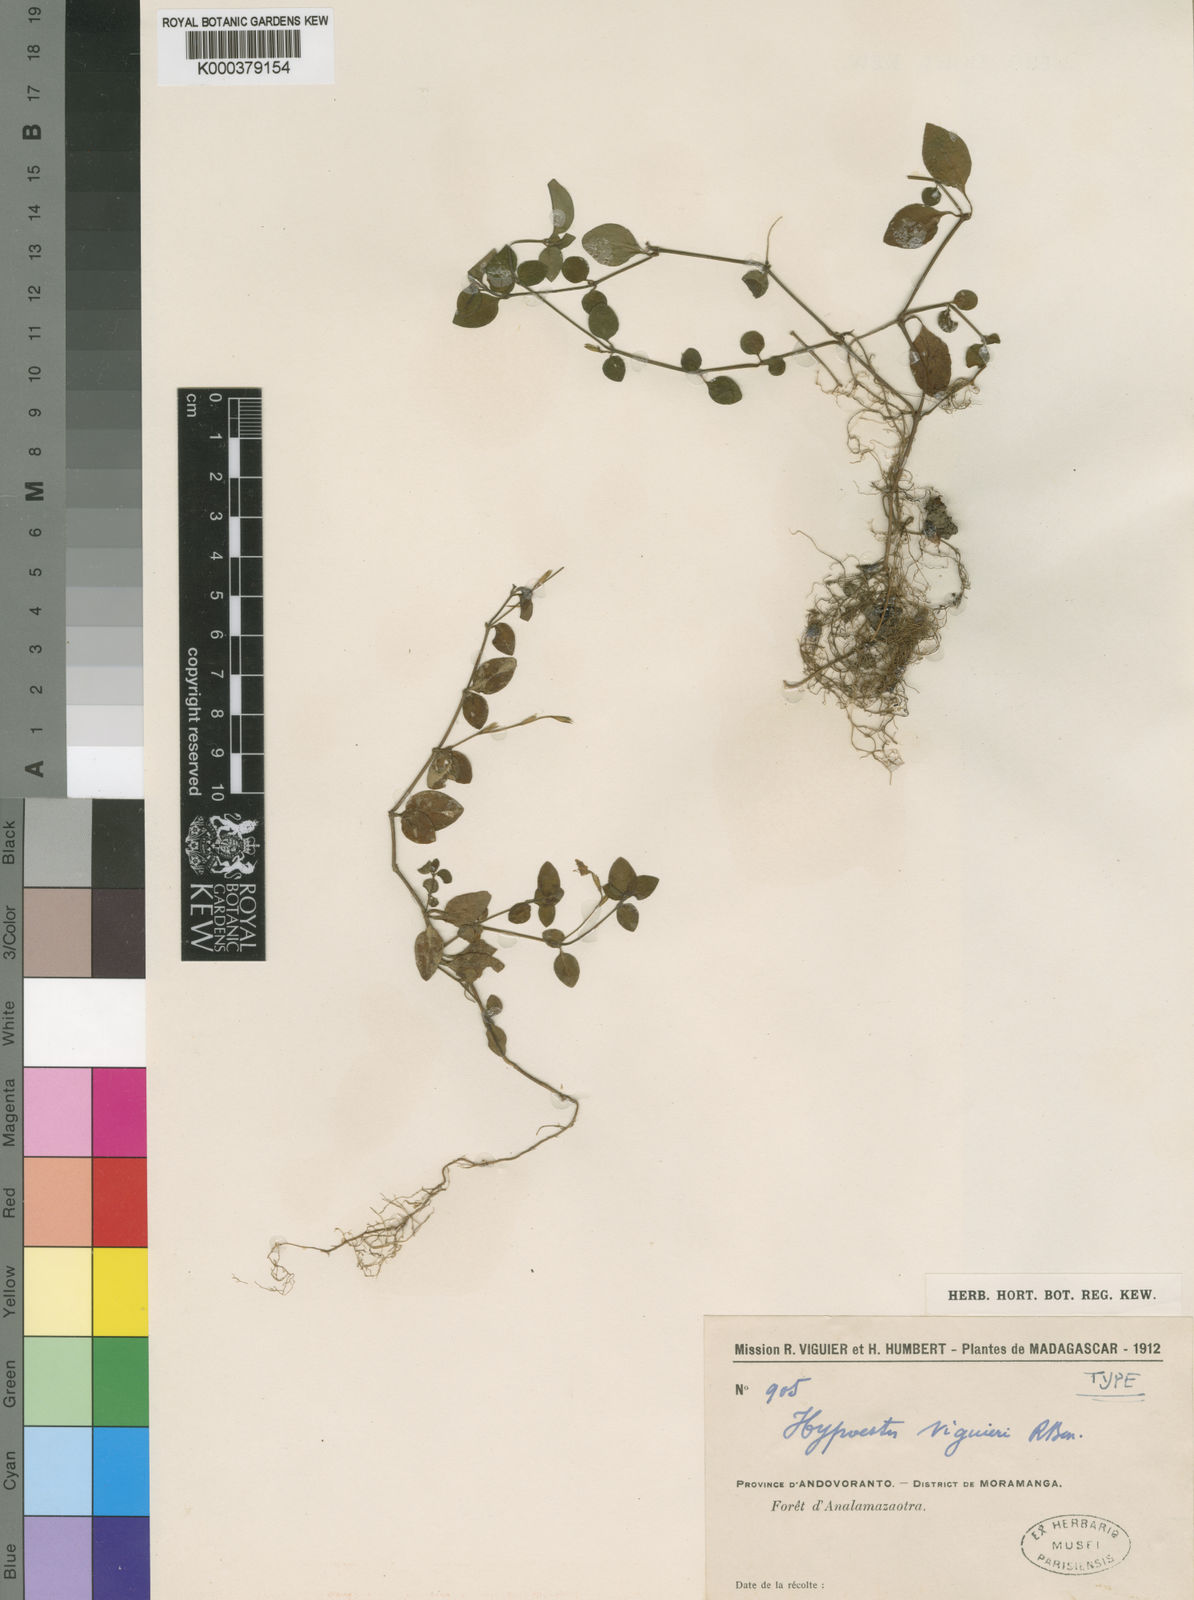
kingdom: Plantae
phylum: Tracheophyta
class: Magnoliopsida
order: Lamiales
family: Acanthaceae
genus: Hypoestes
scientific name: Hypoestes viguieri
